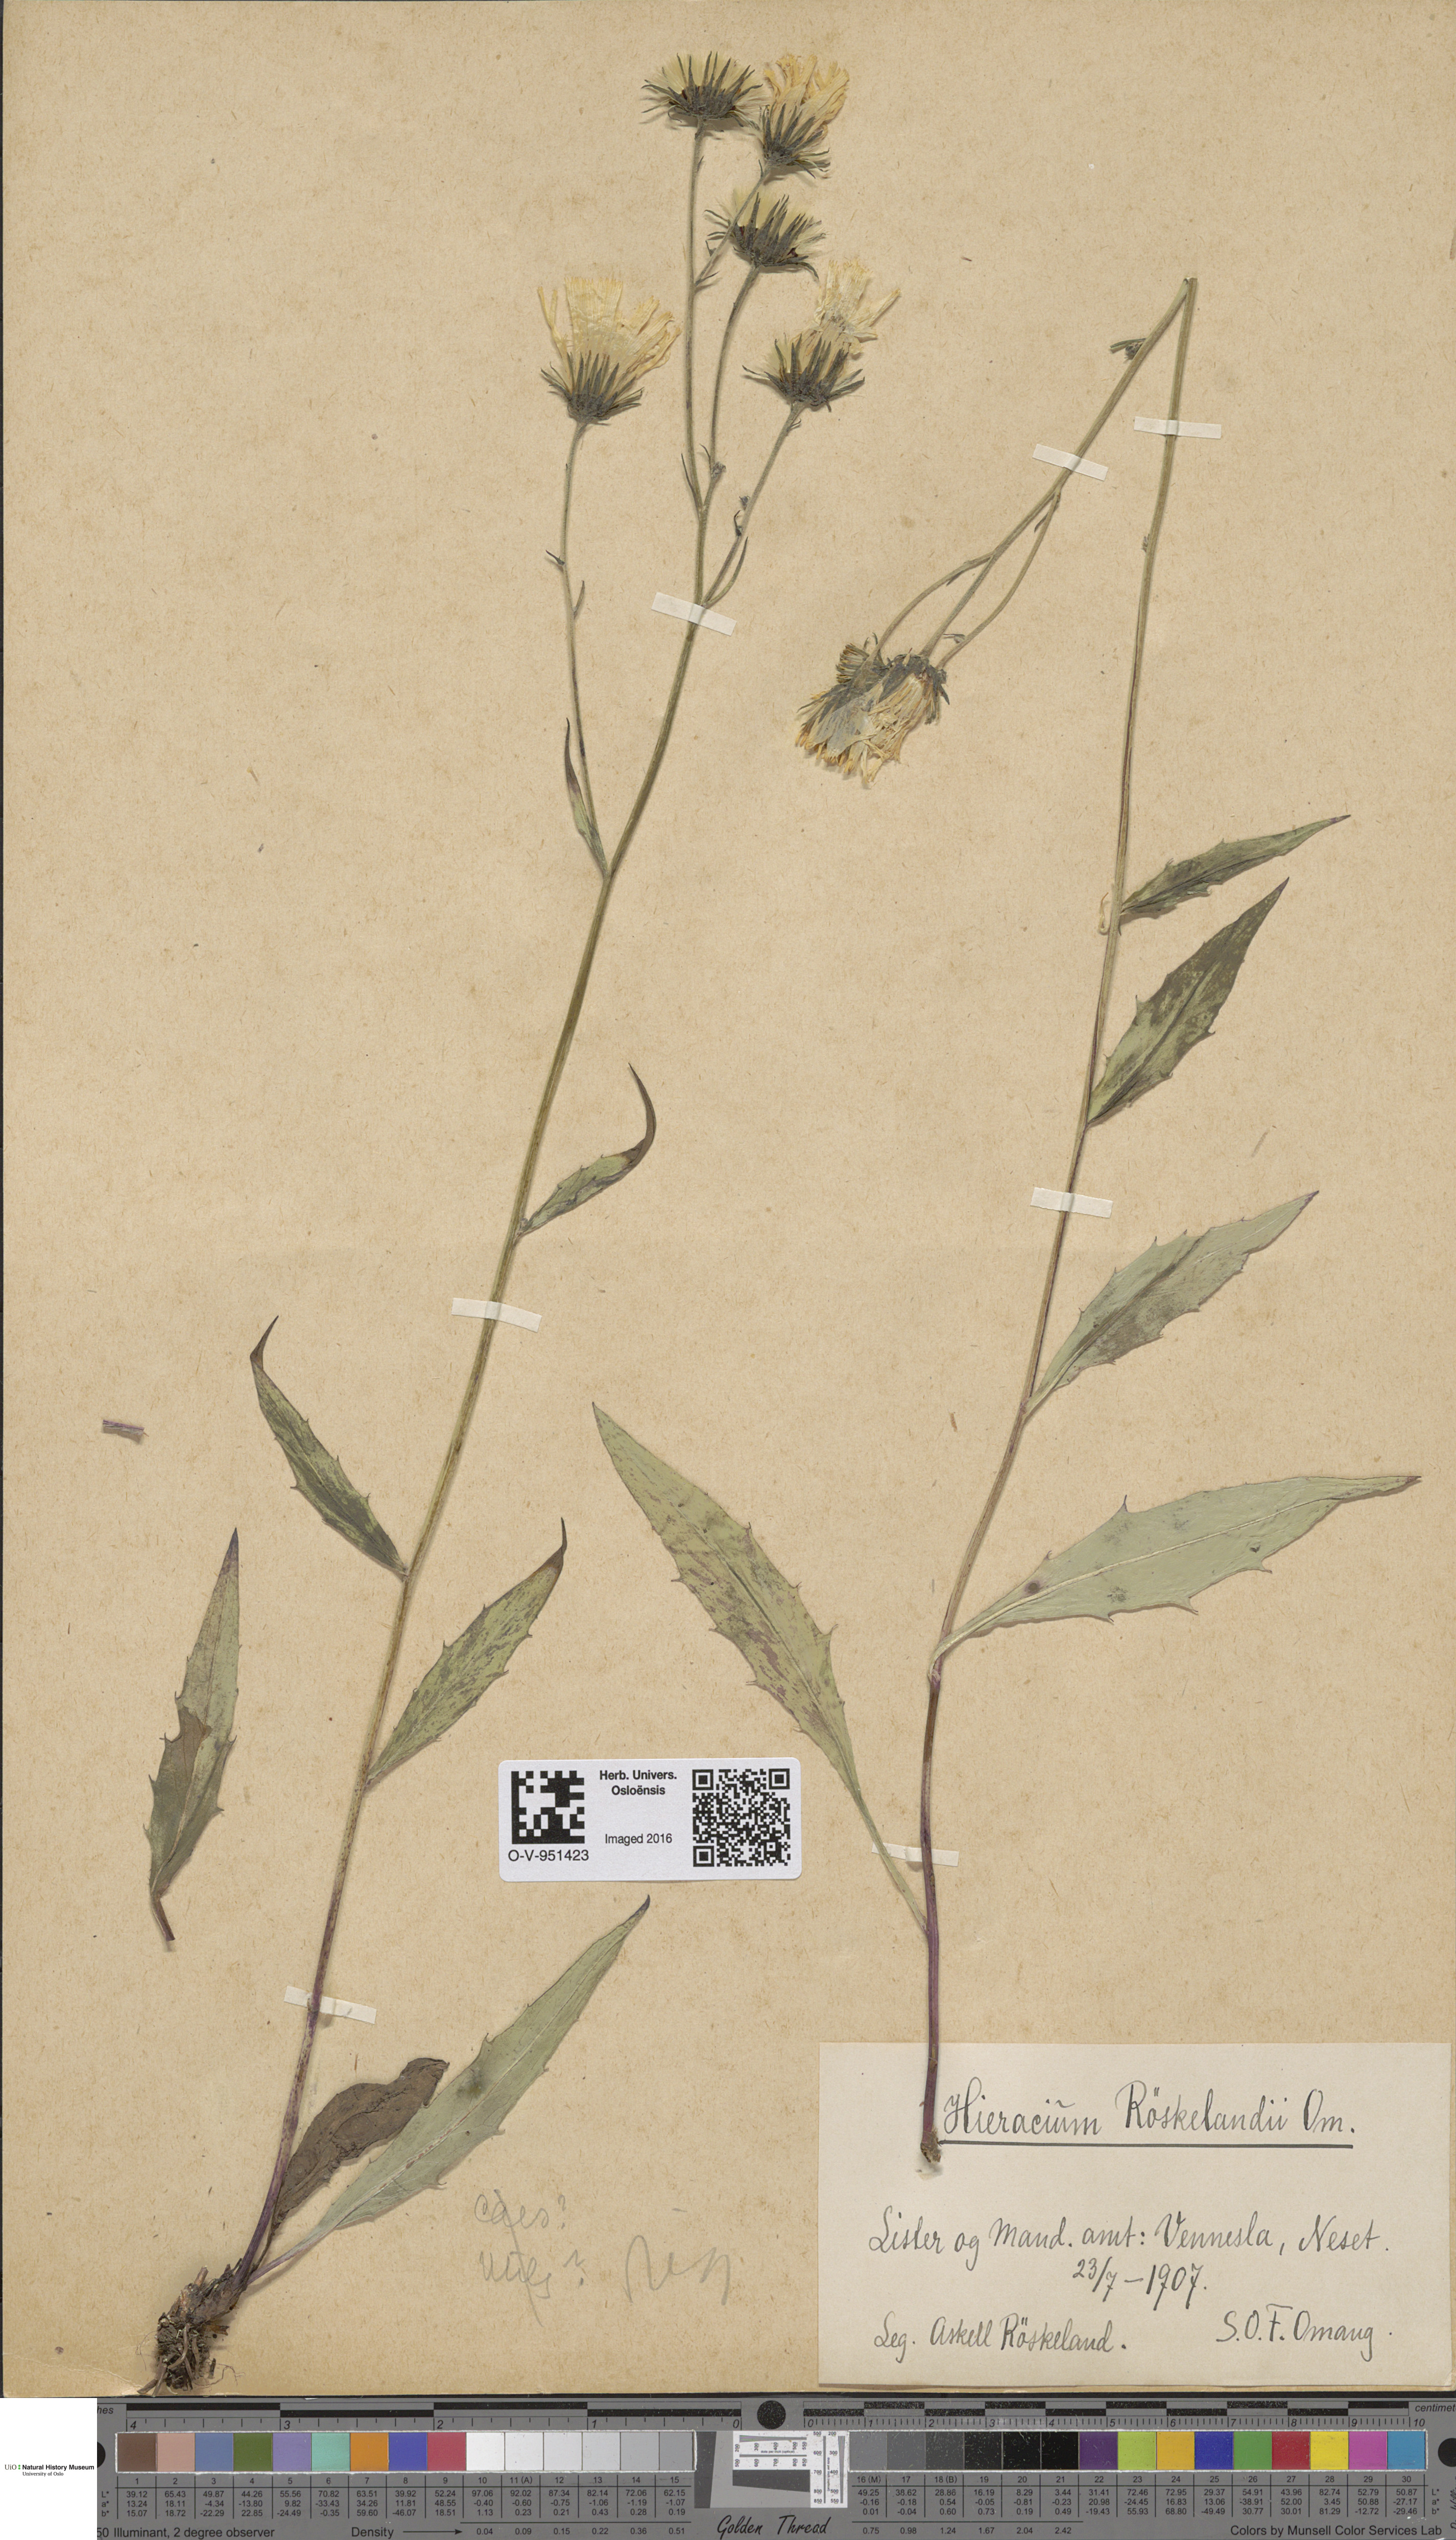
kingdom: Plantae
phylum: Tracheophyta
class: Magnoliopsida
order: Asterales
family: Asteraceae
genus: Hieracium
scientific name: Hieracium
